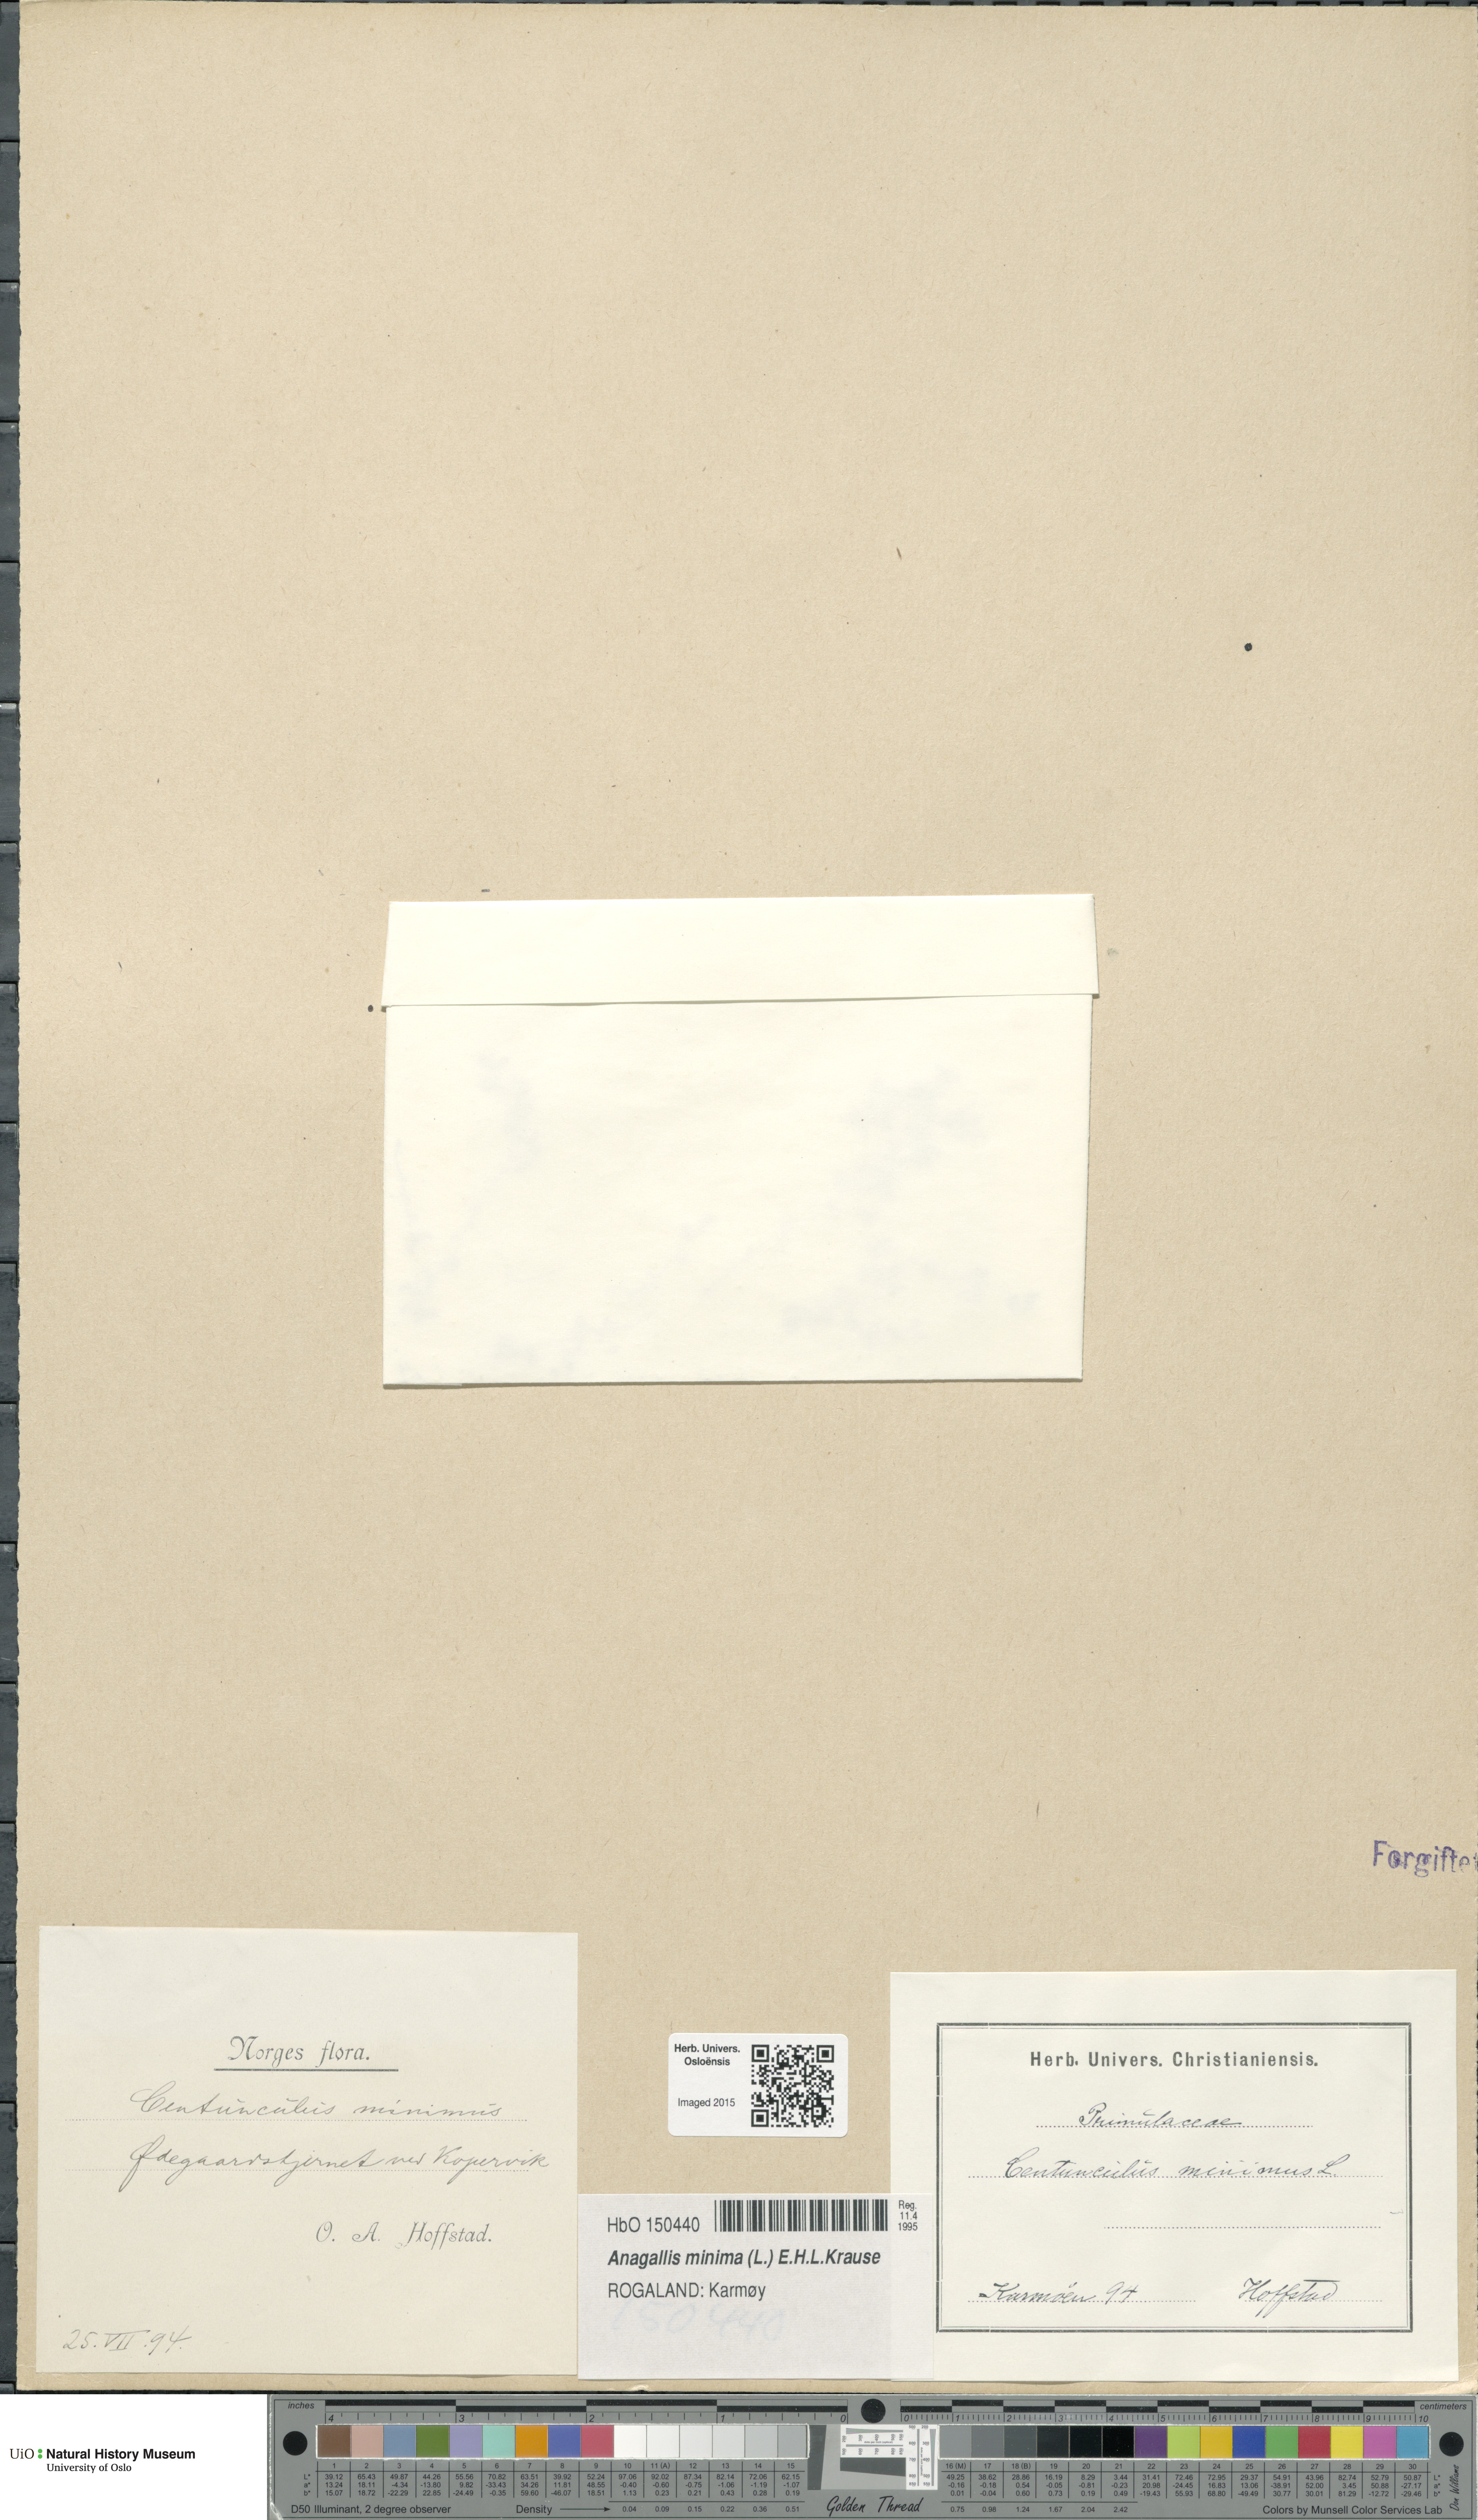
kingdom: Plantae
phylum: Tracheophyta
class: Magnoliopsida
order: Ericales
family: Primulaceae
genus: Lysimachia
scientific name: Lysimachia minima
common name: Chaffweed
